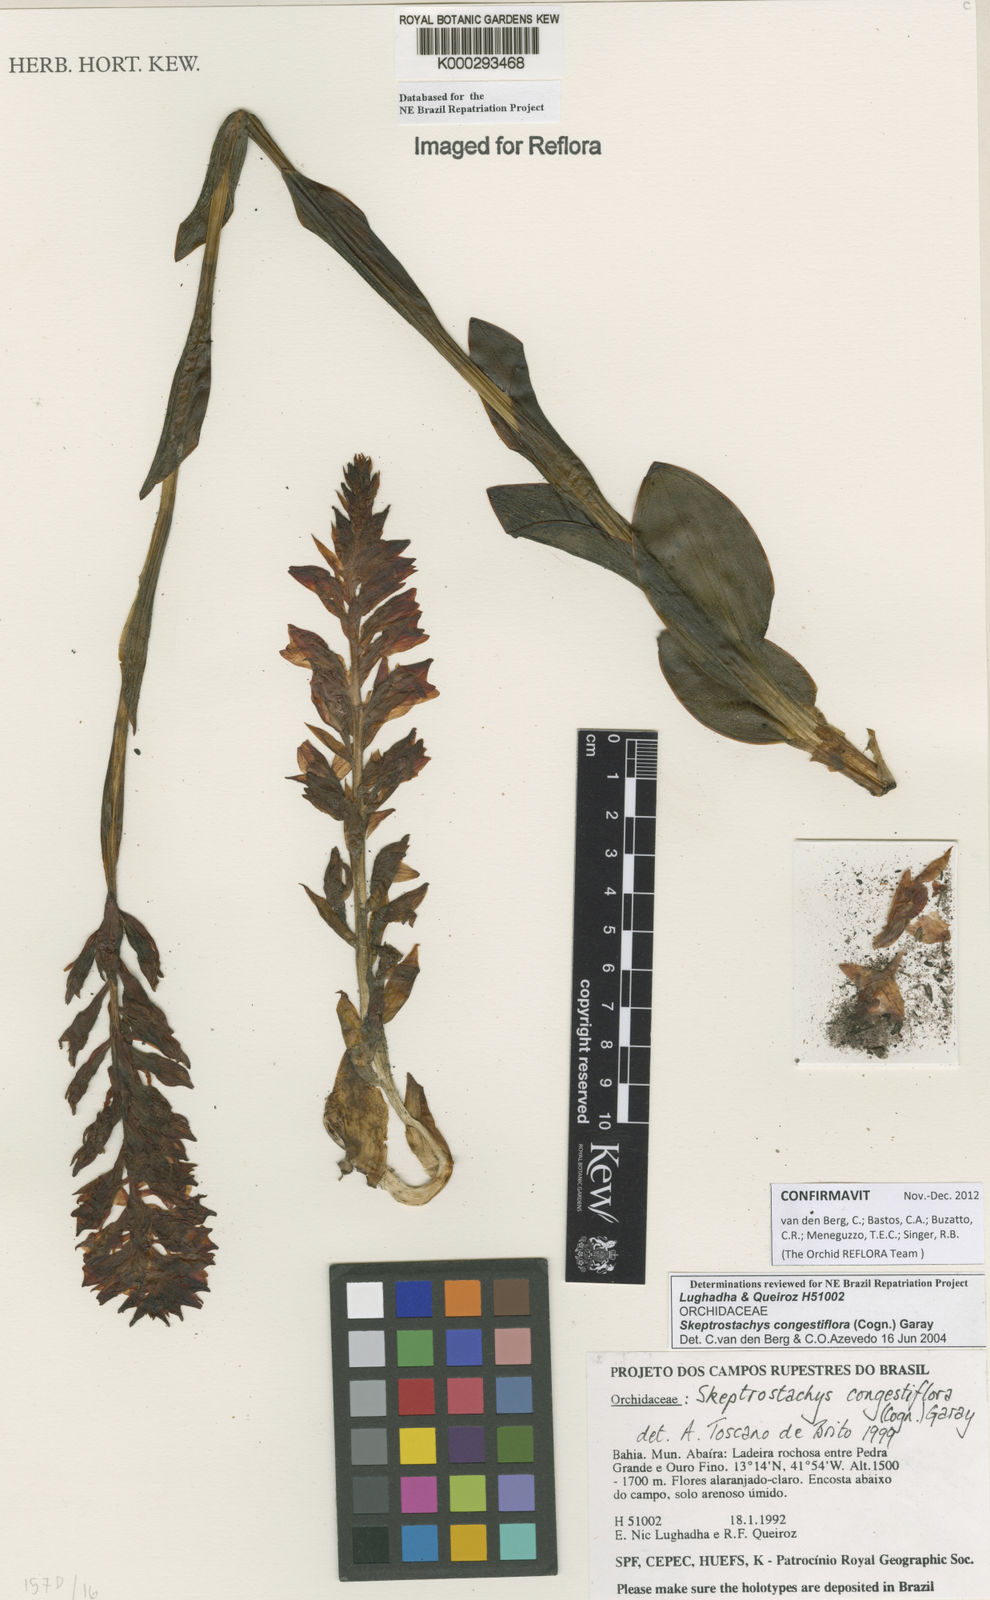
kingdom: Plantae
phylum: Tracheophyta
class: Liliopsida
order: Asparagales
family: Orchidaceae
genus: Skeptrostachys
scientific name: Skeptrostachys congestiflora
